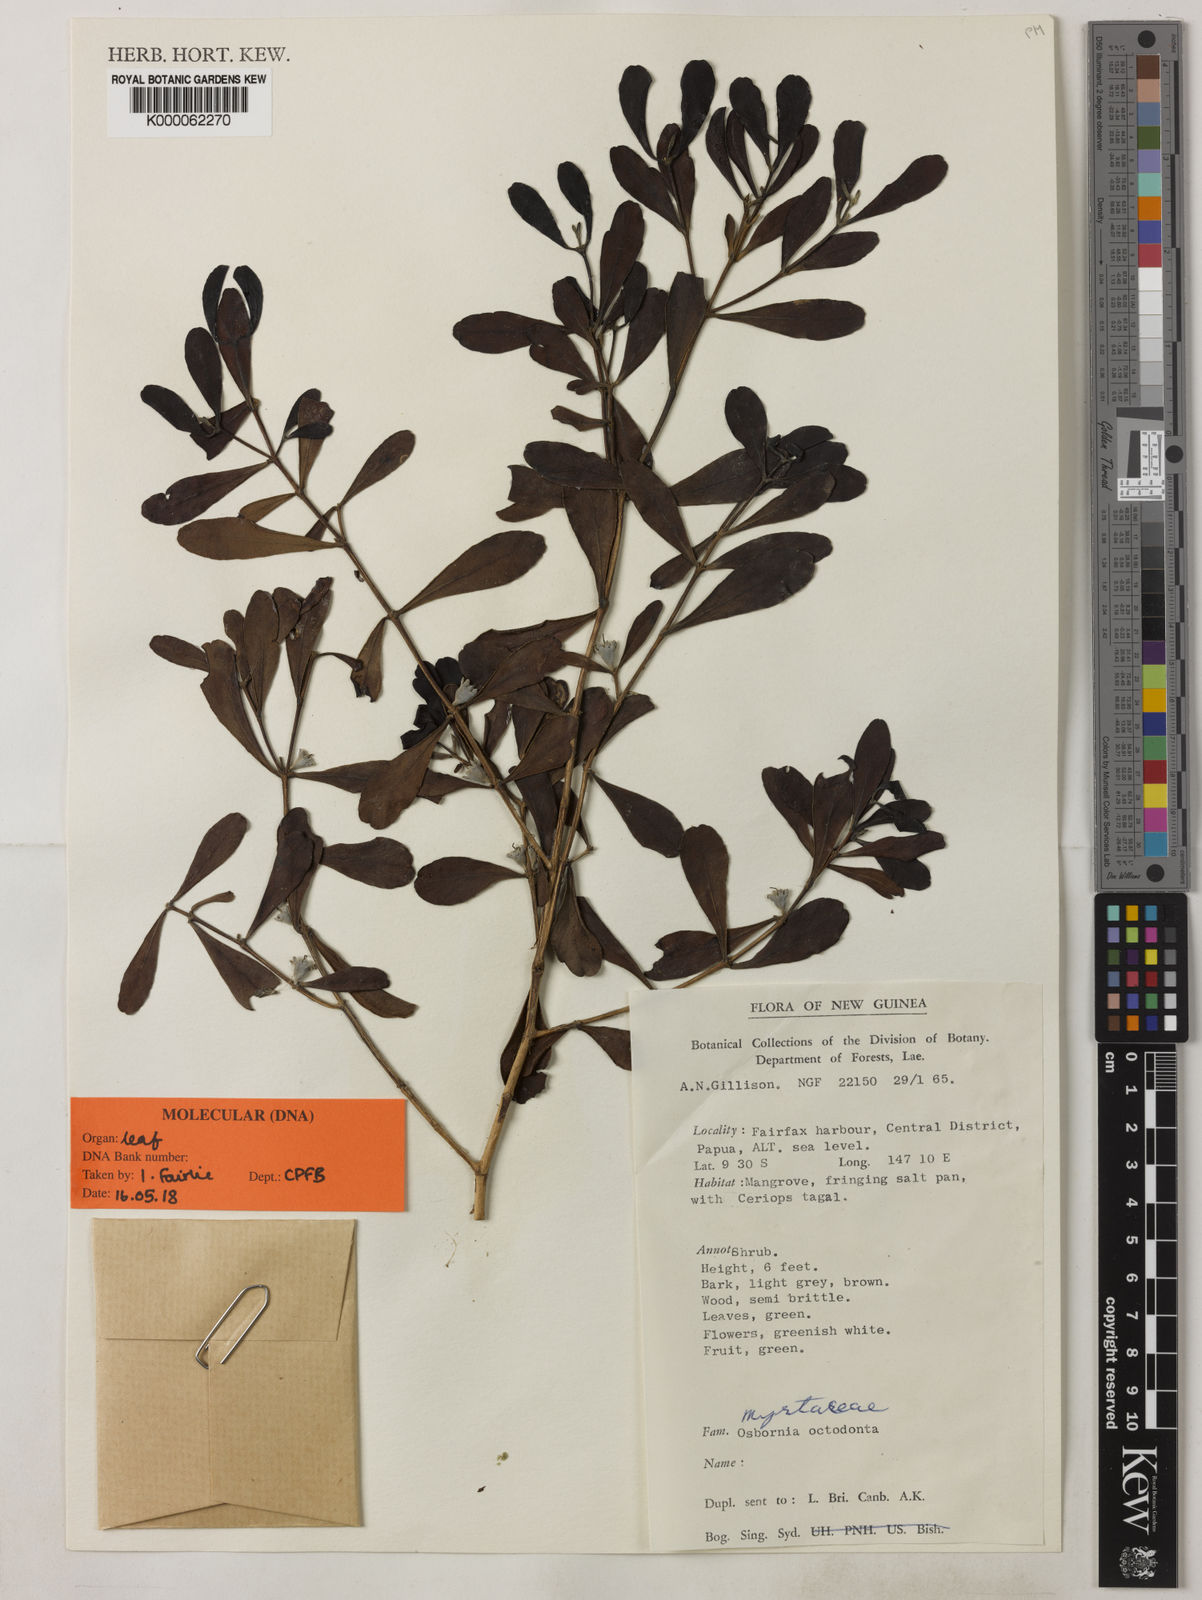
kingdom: Plantae
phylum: Tracheophyta
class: Magnoliopsida
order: Myrtales
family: Myrtaceae
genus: Osbornia
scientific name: Osbornia octodonta
